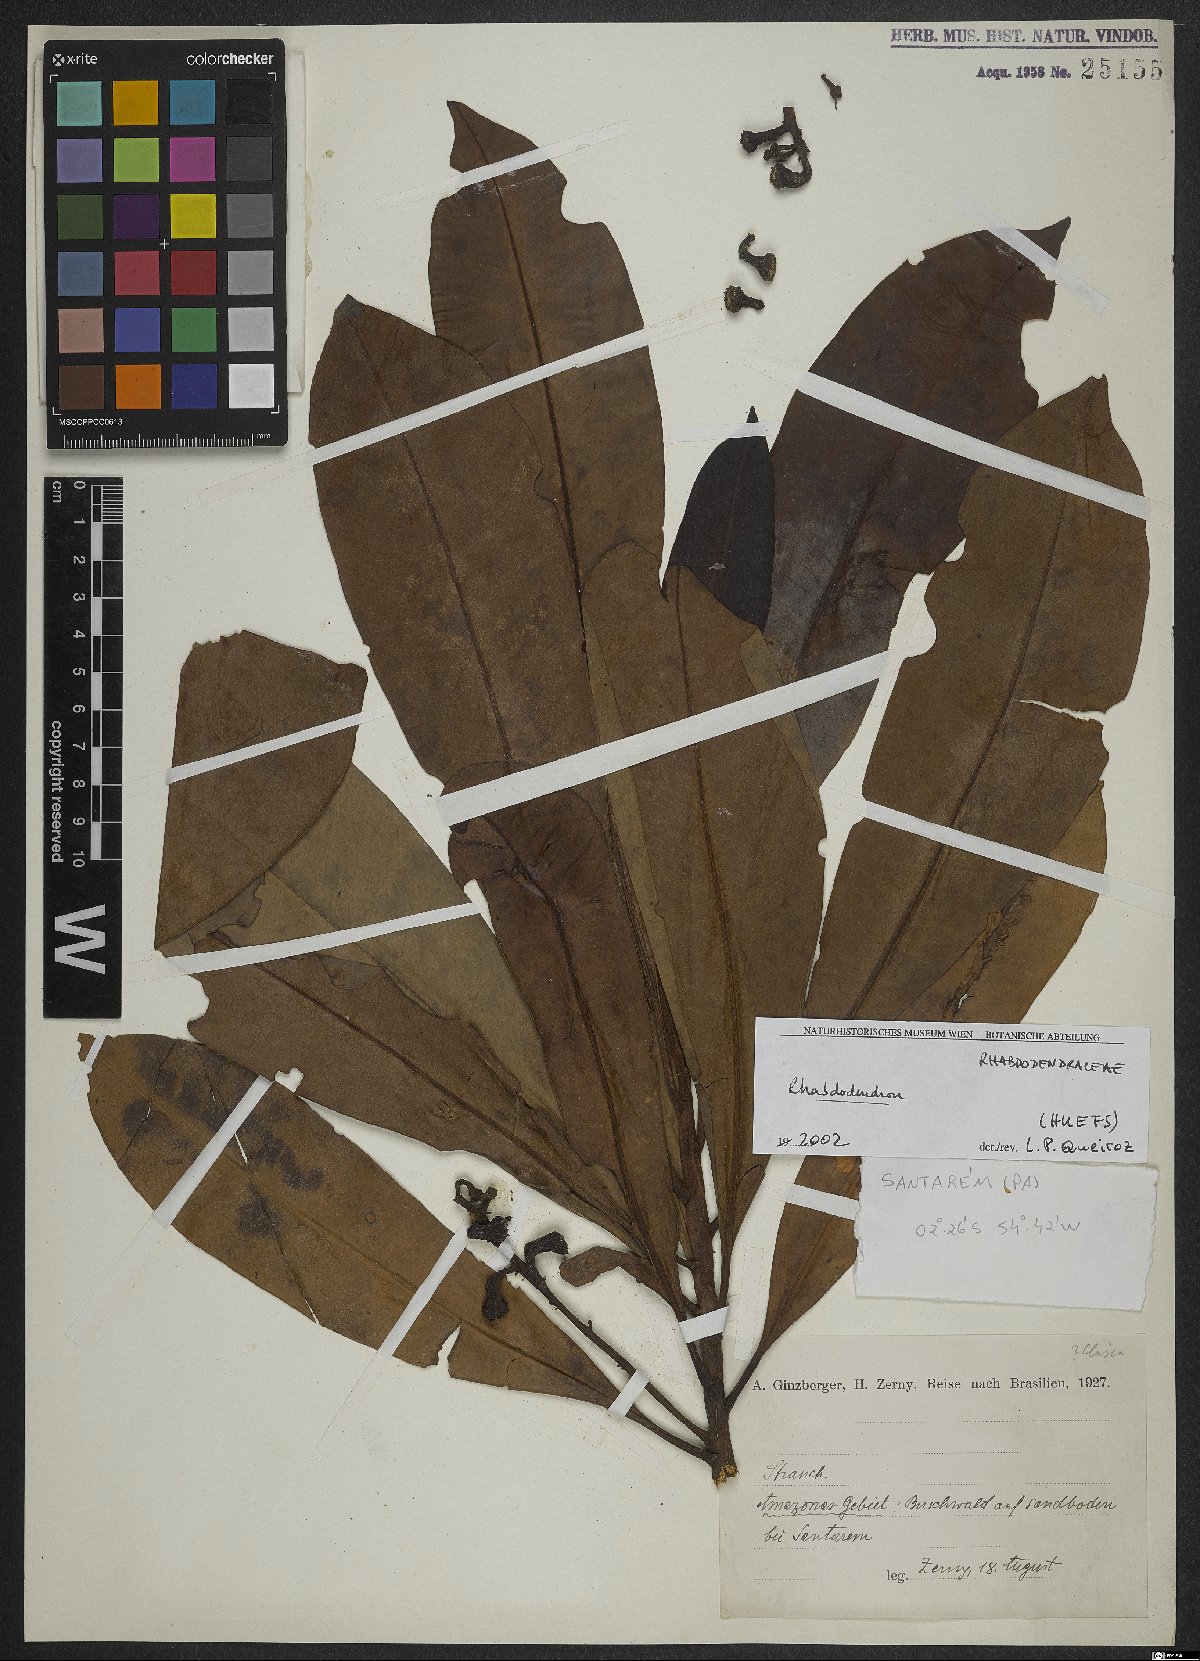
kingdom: Plantae
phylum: Tracheophyta
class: Magnoliopsida
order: Caryophyllales
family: Rhabdodendraceae
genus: Rhabdodendron
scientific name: Rhabdodendron
